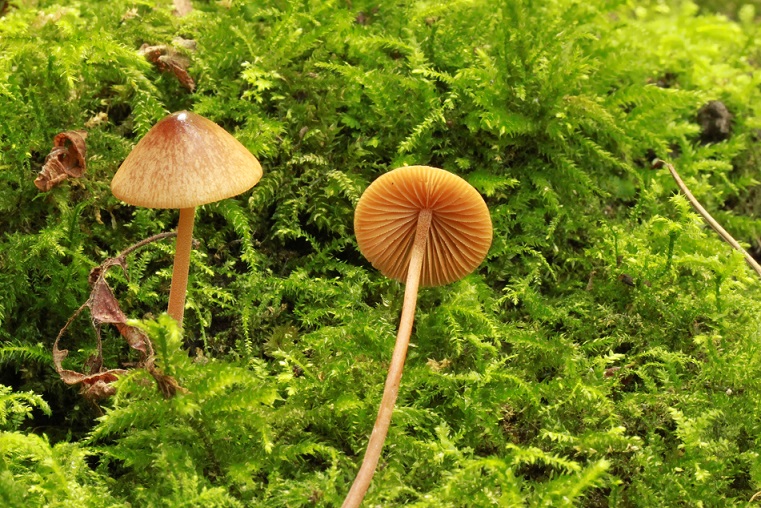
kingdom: Fungi
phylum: Basidiomycota
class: Agaricomycetes
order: Agaricales
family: Bolbitiaceae
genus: Conocybe
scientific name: Conocybe rickeniana
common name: kastaniebrun keglehat
